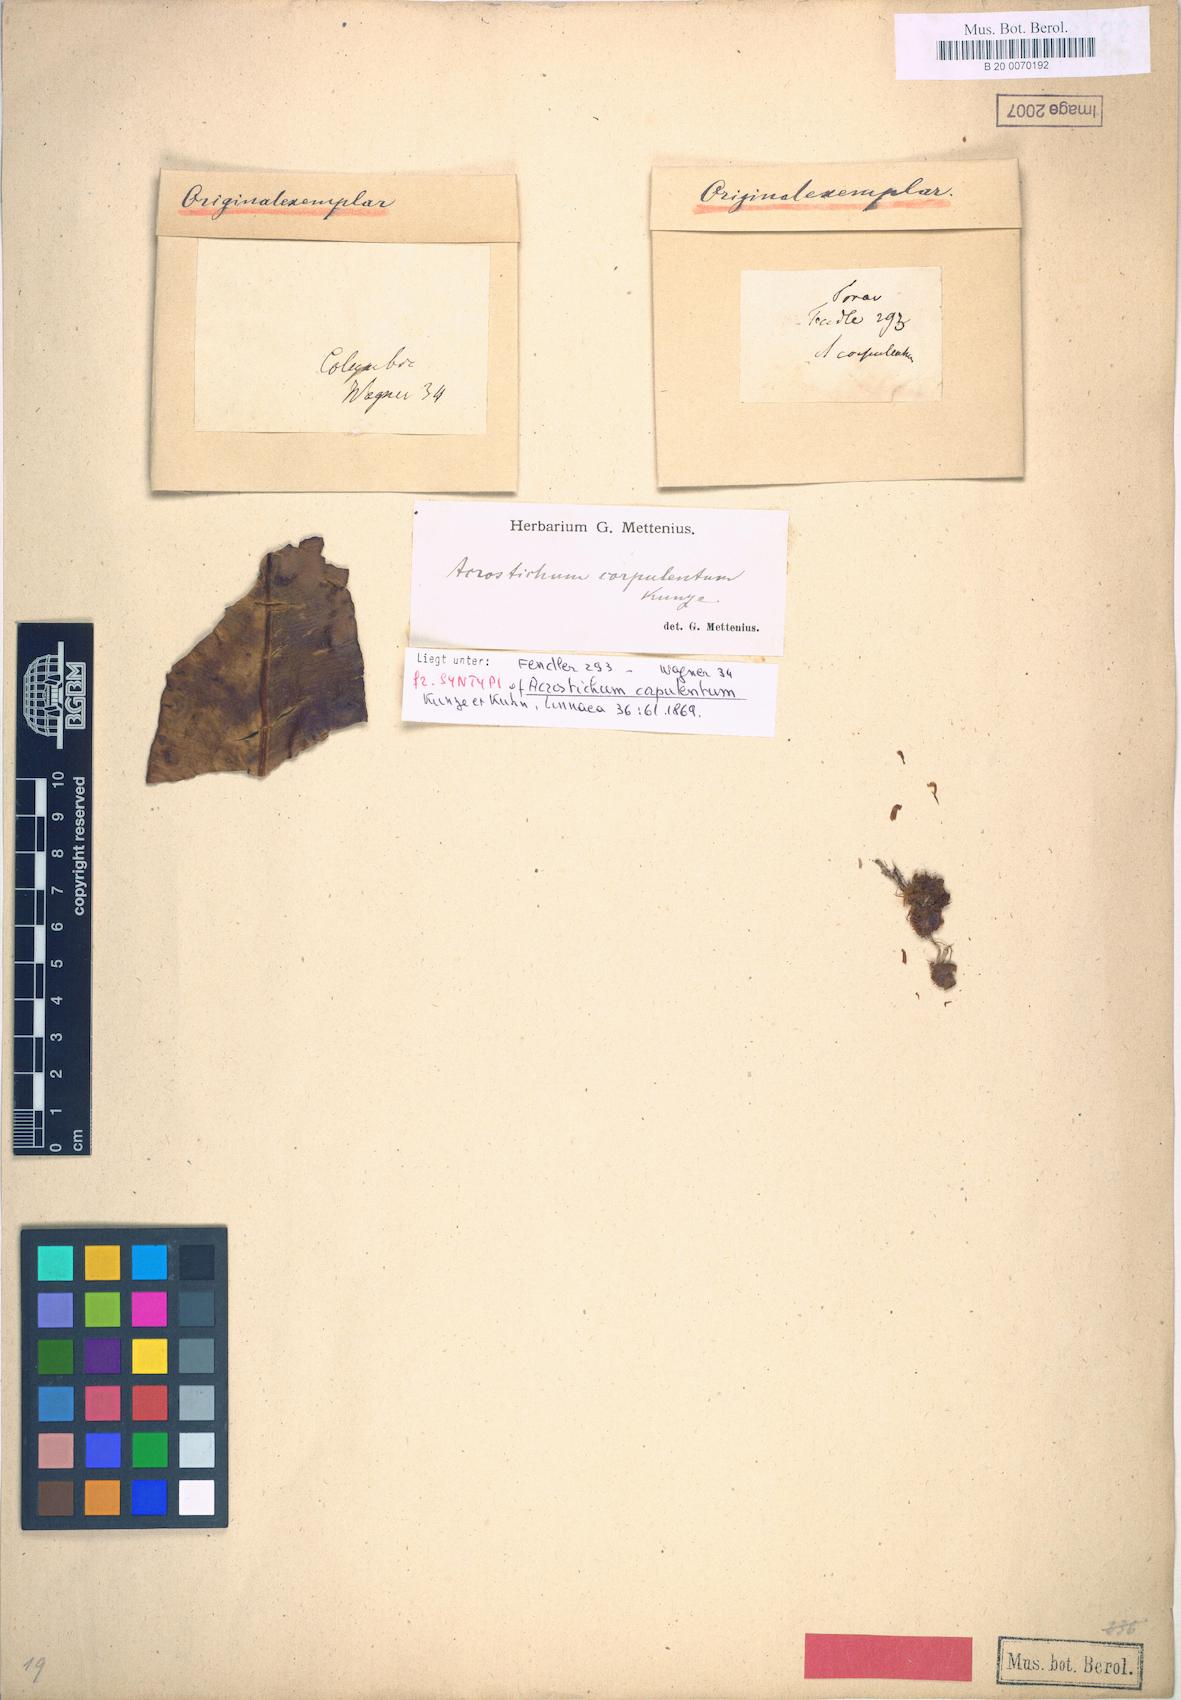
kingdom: Plantae
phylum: Tracheophyta
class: Polypodiopsida
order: Polypodiales
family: Dryopteridaceae
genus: Elaphoglossum
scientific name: Elaphoglossum
